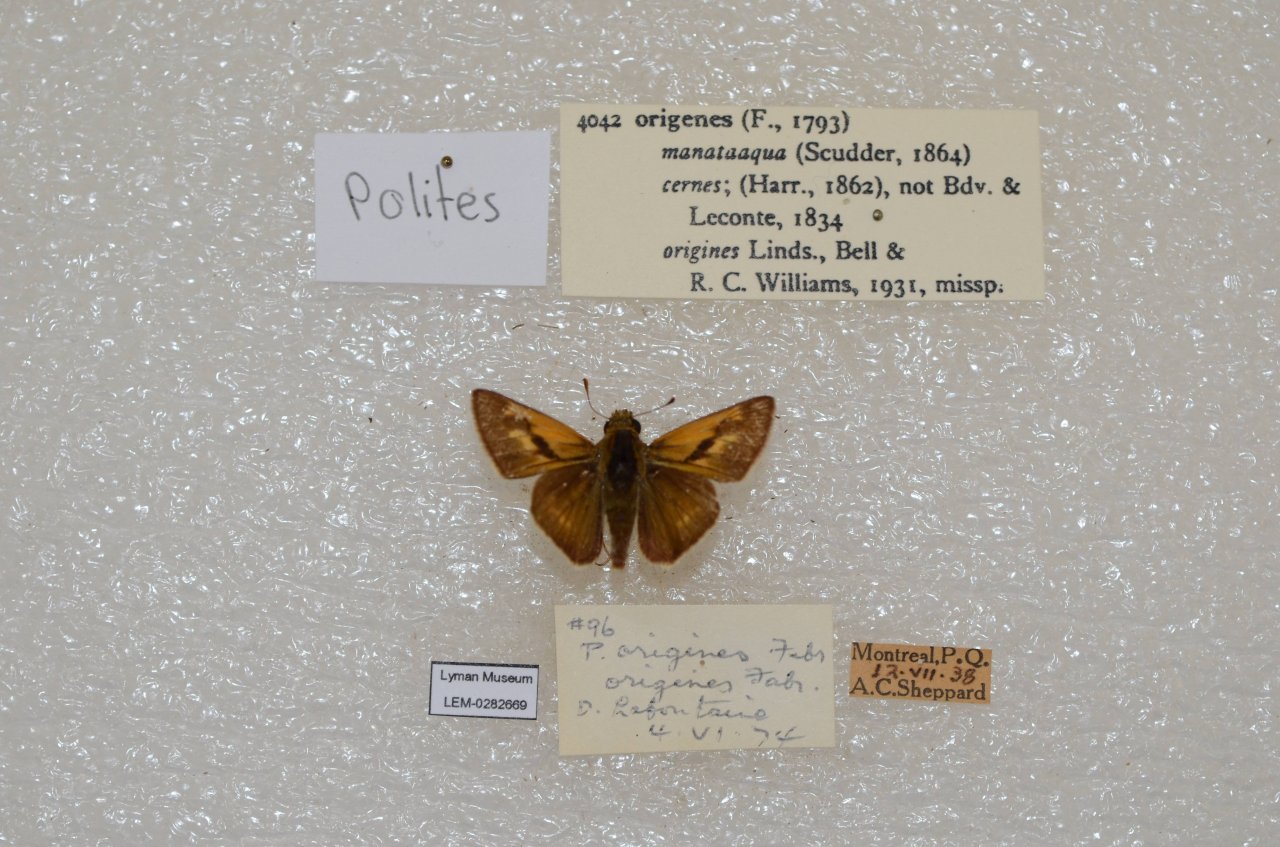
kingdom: Animalia
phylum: Arthropoda
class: Insecta
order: Lepidoptera
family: Hesperiidae
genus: Polites
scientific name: Polites
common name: Crossline Skipper
